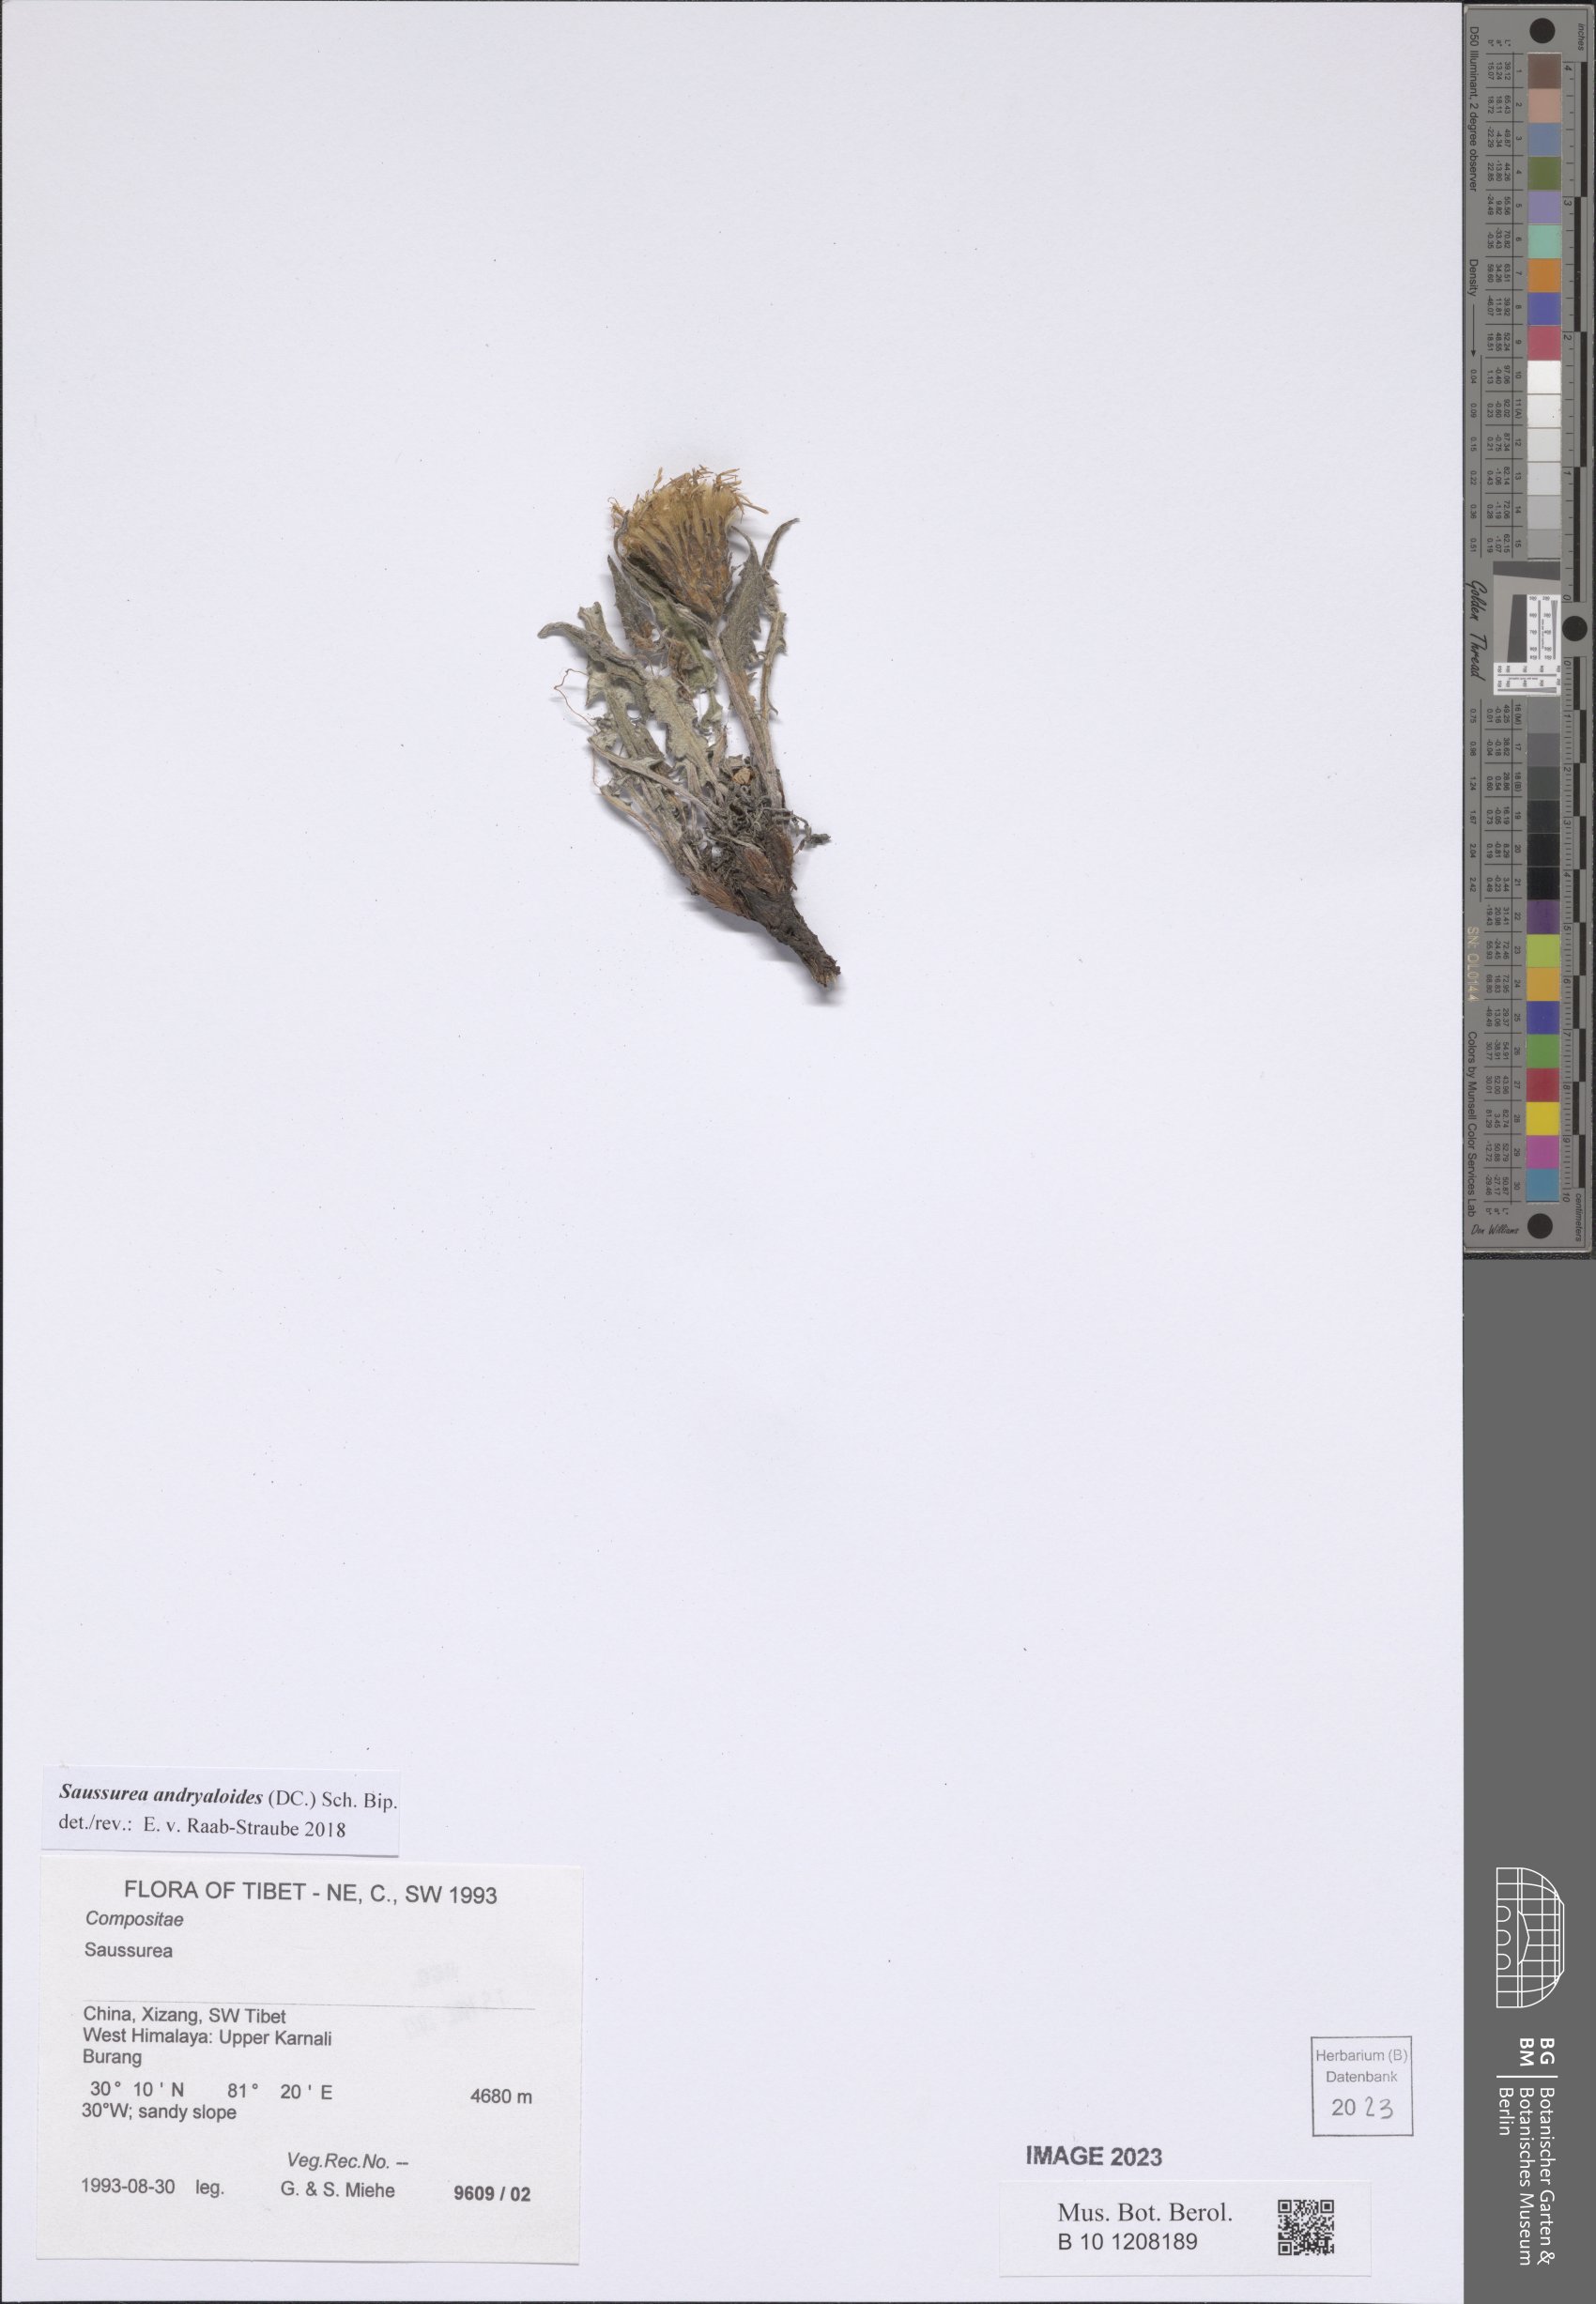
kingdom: Plantae
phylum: Tracheophyta
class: Magnoliopsida
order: Asterales
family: Asteraceae
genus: Saussurea
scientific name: Saussurea andryaloides
